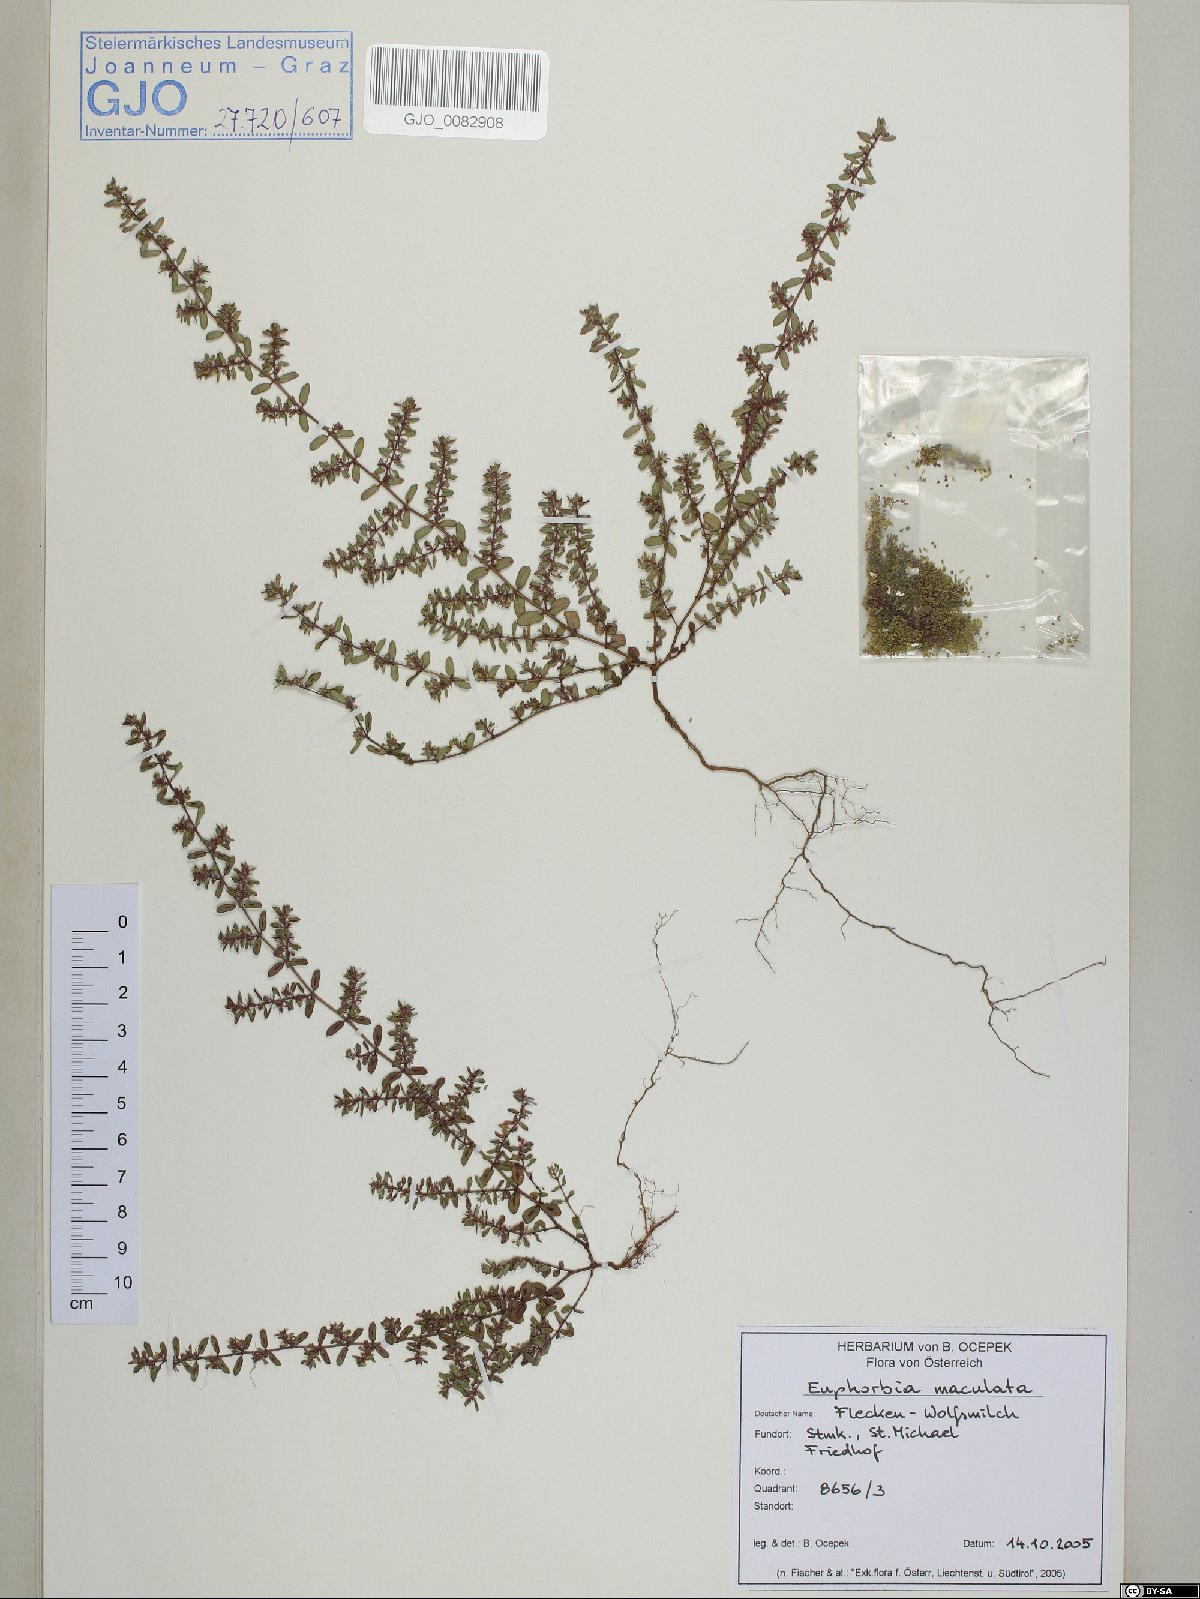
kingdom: Plantae
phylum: Tracheophyta
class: Magnoliopsida
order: Malpighiales
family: Euphorbiaceae
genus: Euphorbia
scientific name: Euphorbia maculata
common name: Spotted spurge
